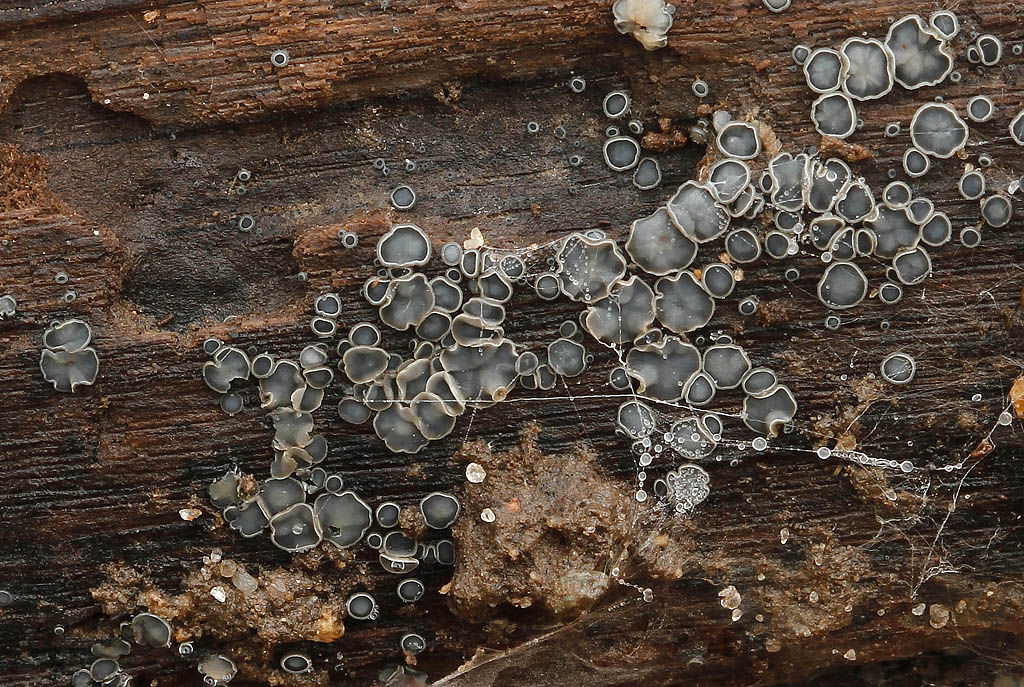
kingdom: Fungi
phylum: Ascomycota
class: Leotiomycetes
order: Helotiales
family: Mollisiaceae
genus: Mollisia
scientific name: Mollisia cinerea
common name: almindelig gråskive
